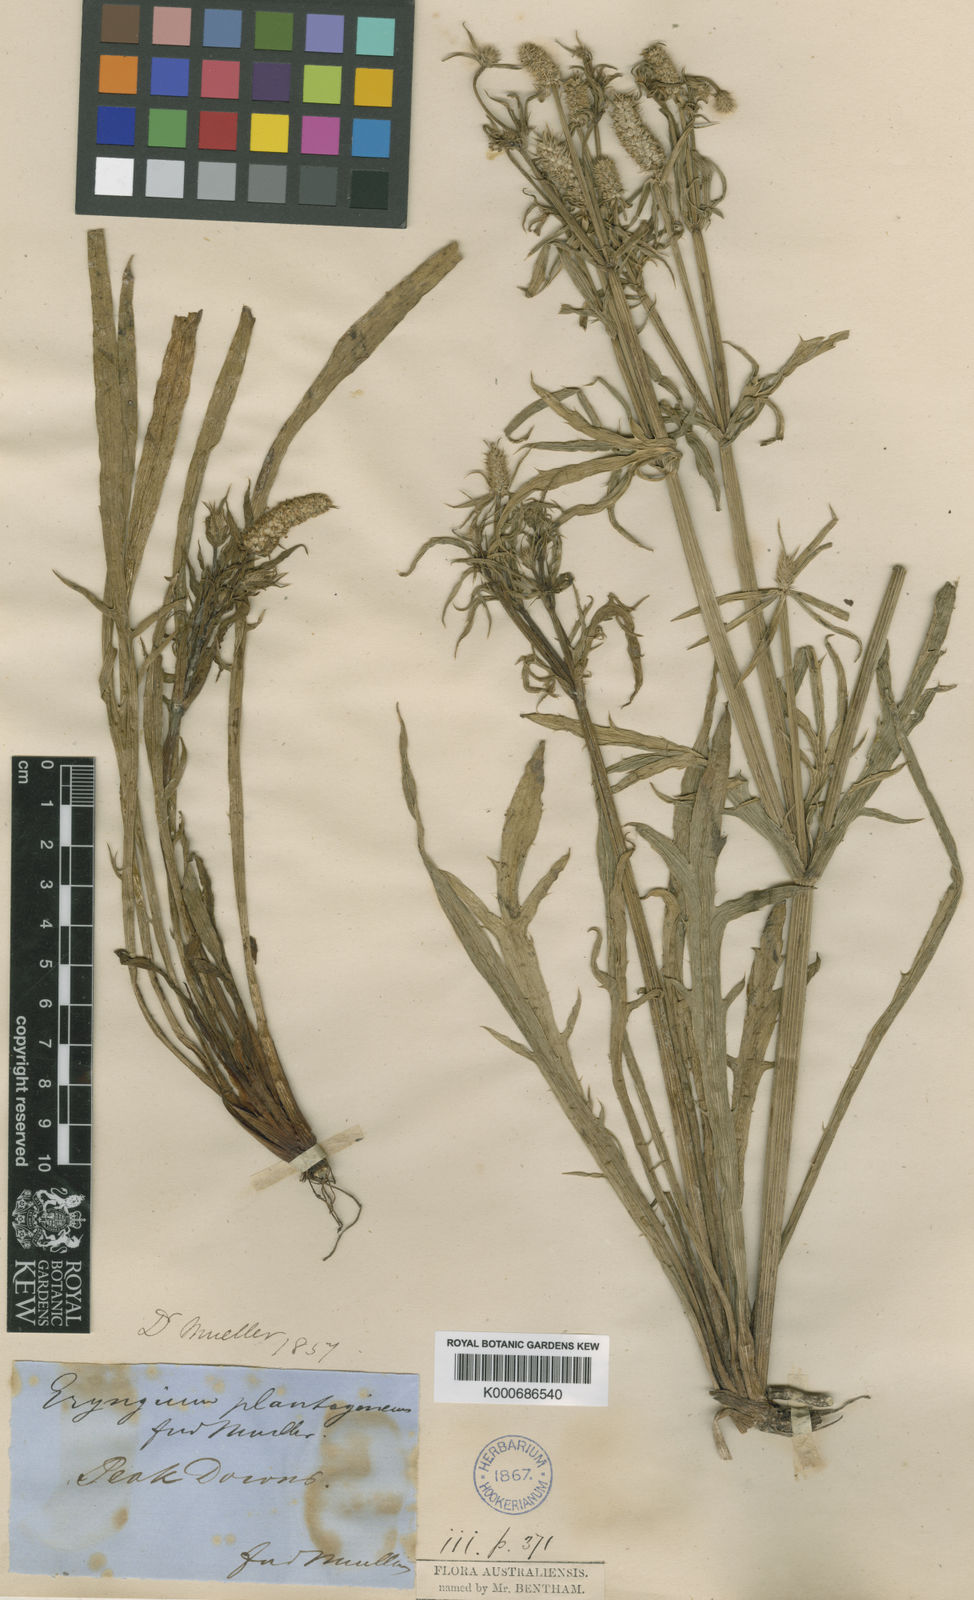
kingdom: Plantae
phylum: Tracheophyta
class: Magnoliopsida
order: Apiales
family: Apiaceae
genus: Eryngium
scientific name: Eryngium plantagineum
